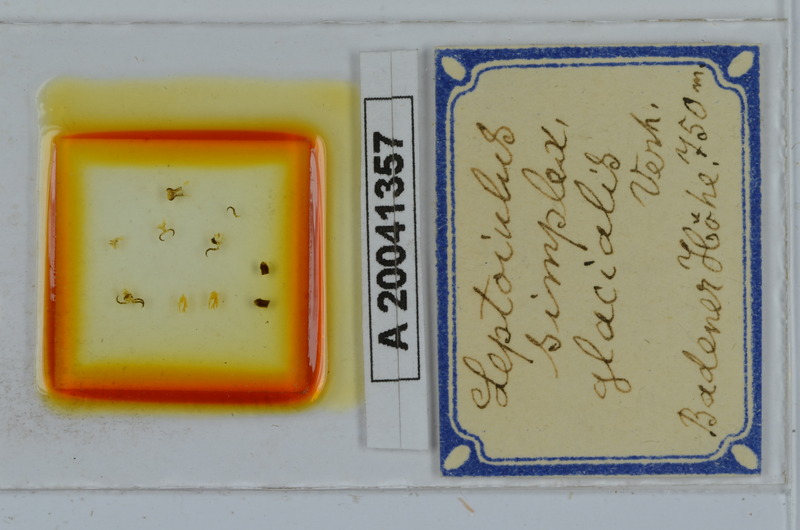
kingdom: Animalia
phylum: Arthropoda
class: Diplopoda
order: Julida
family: Julidae
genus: Leptoiulus
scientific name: Leptoiulus simplex
